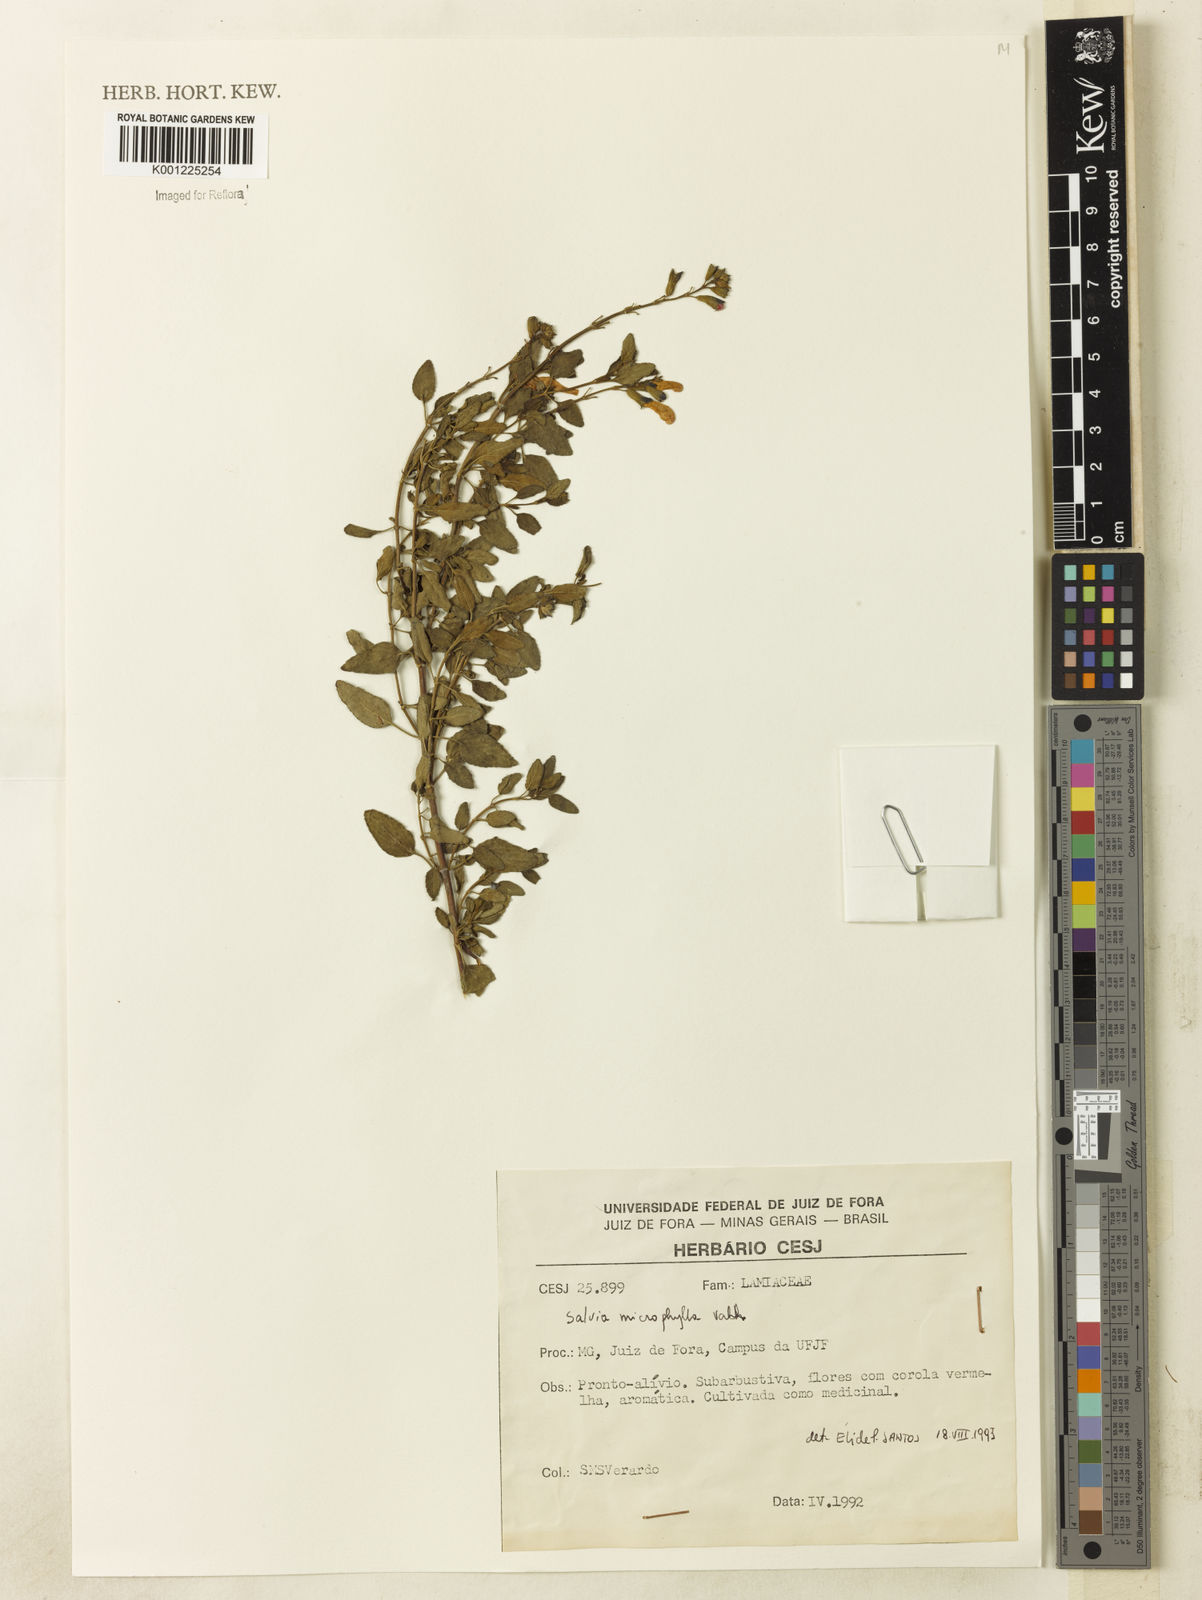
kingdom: Plantae
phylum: Tracheophyta
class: Magnoliopsida
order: Lamiales
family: Lamiaceae
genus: Salvia
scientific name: Salvia microphylla
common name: Baby sage
